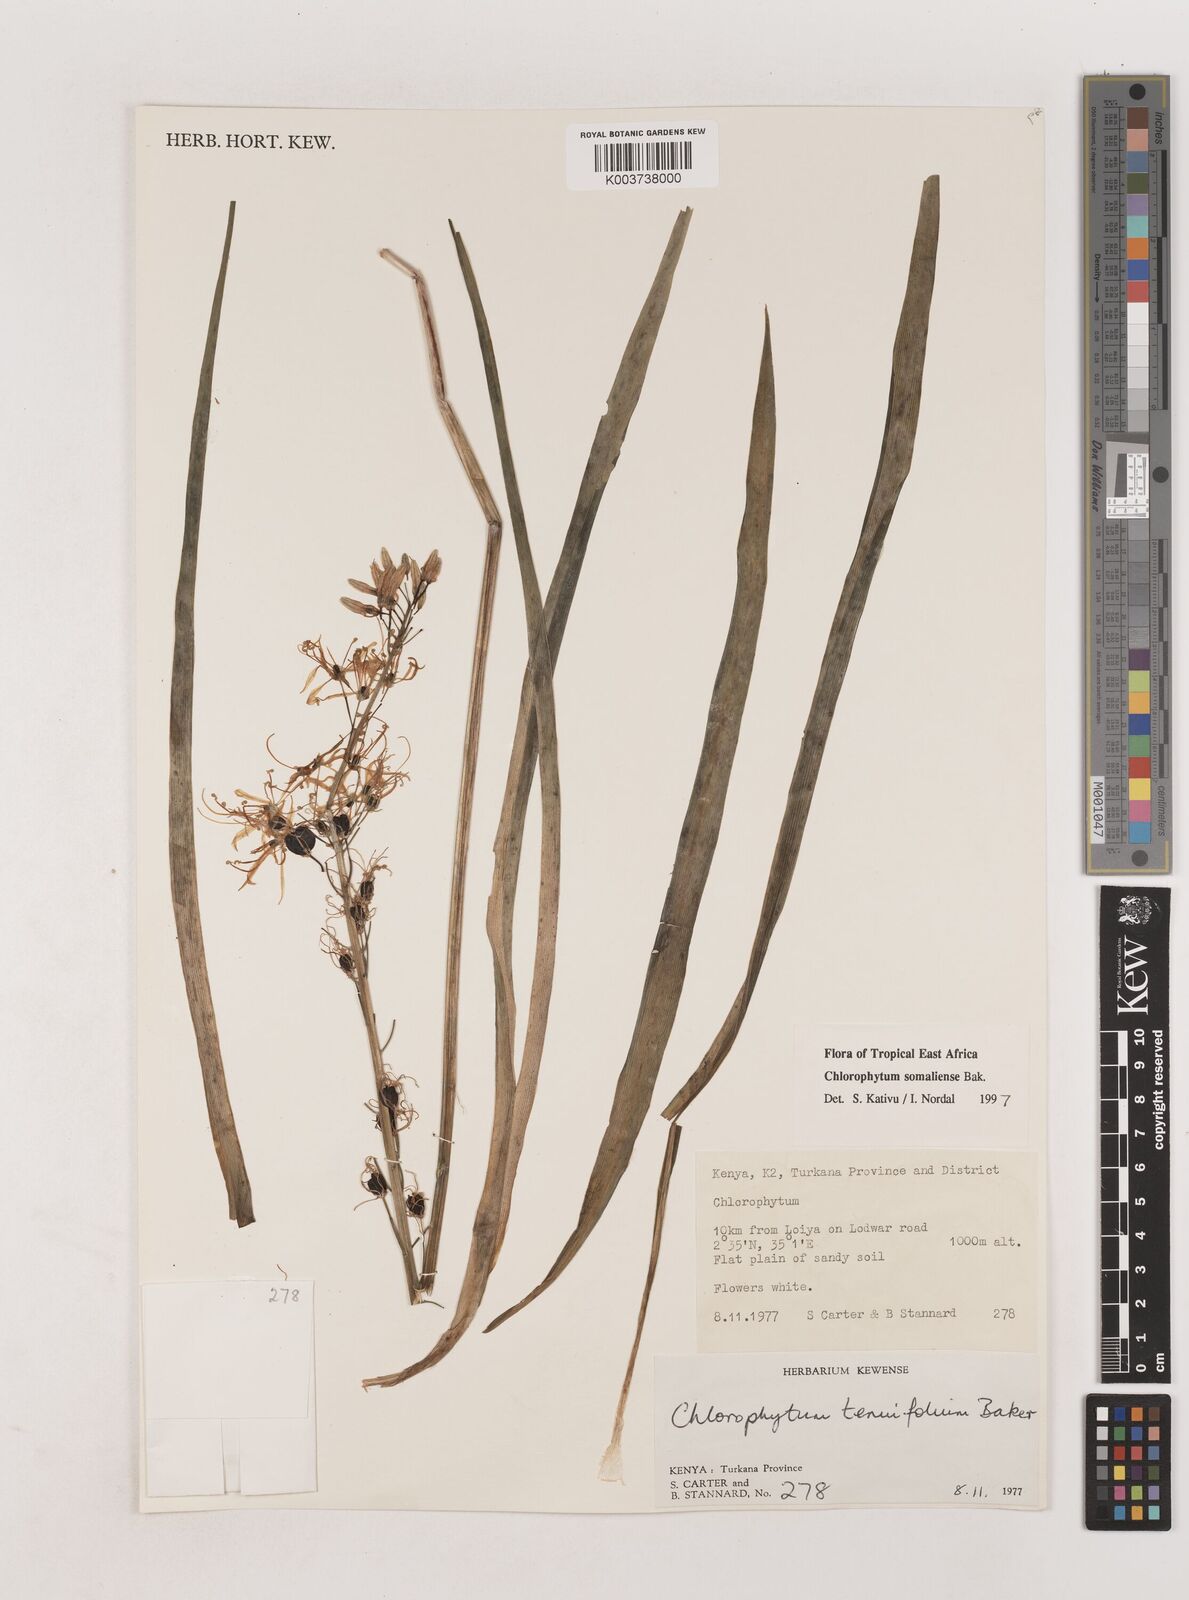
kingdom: Plantae
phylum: Tracheophyta
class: Liliopsida
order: Asparagales
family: Asparagaceae
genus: Chlorophytum
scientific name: Chlorophytum somaliense
